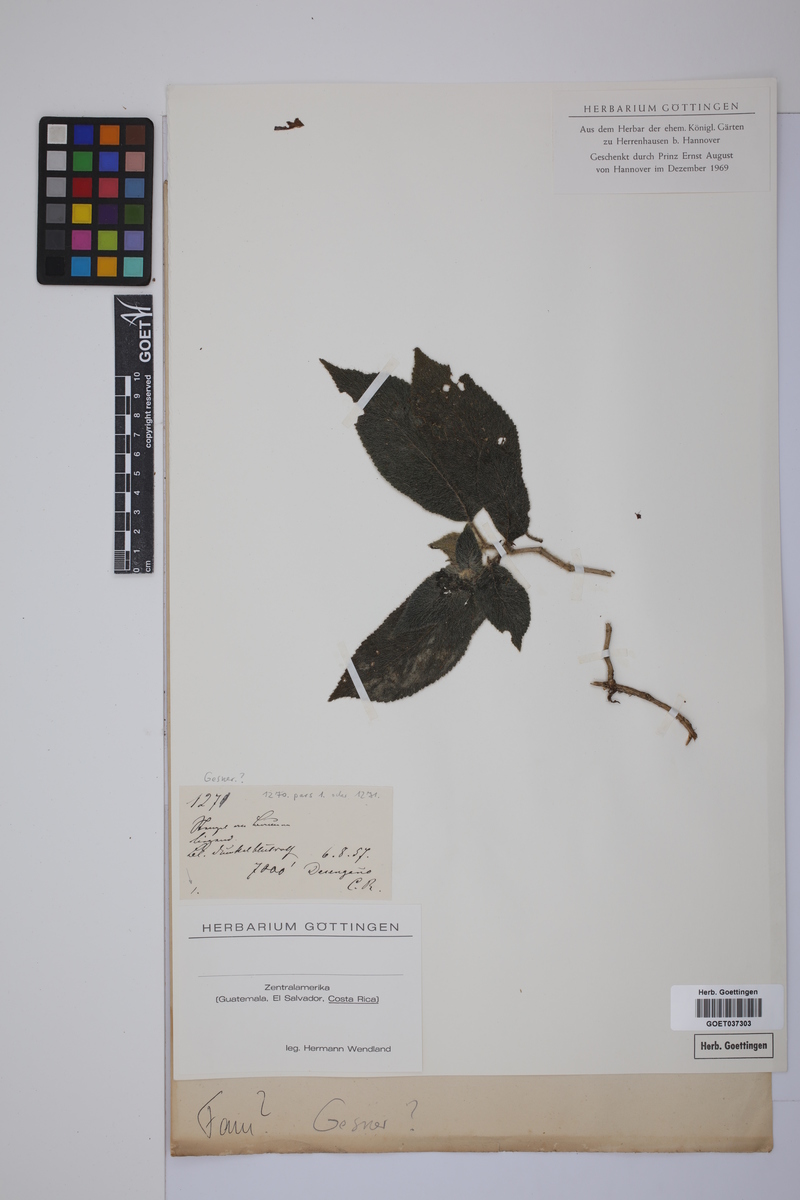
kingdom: Plantae
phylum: Tracheophyta
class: Magnoliopsida
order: Lamiales
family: Gesneriaceae
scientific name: Gesneriaceae
